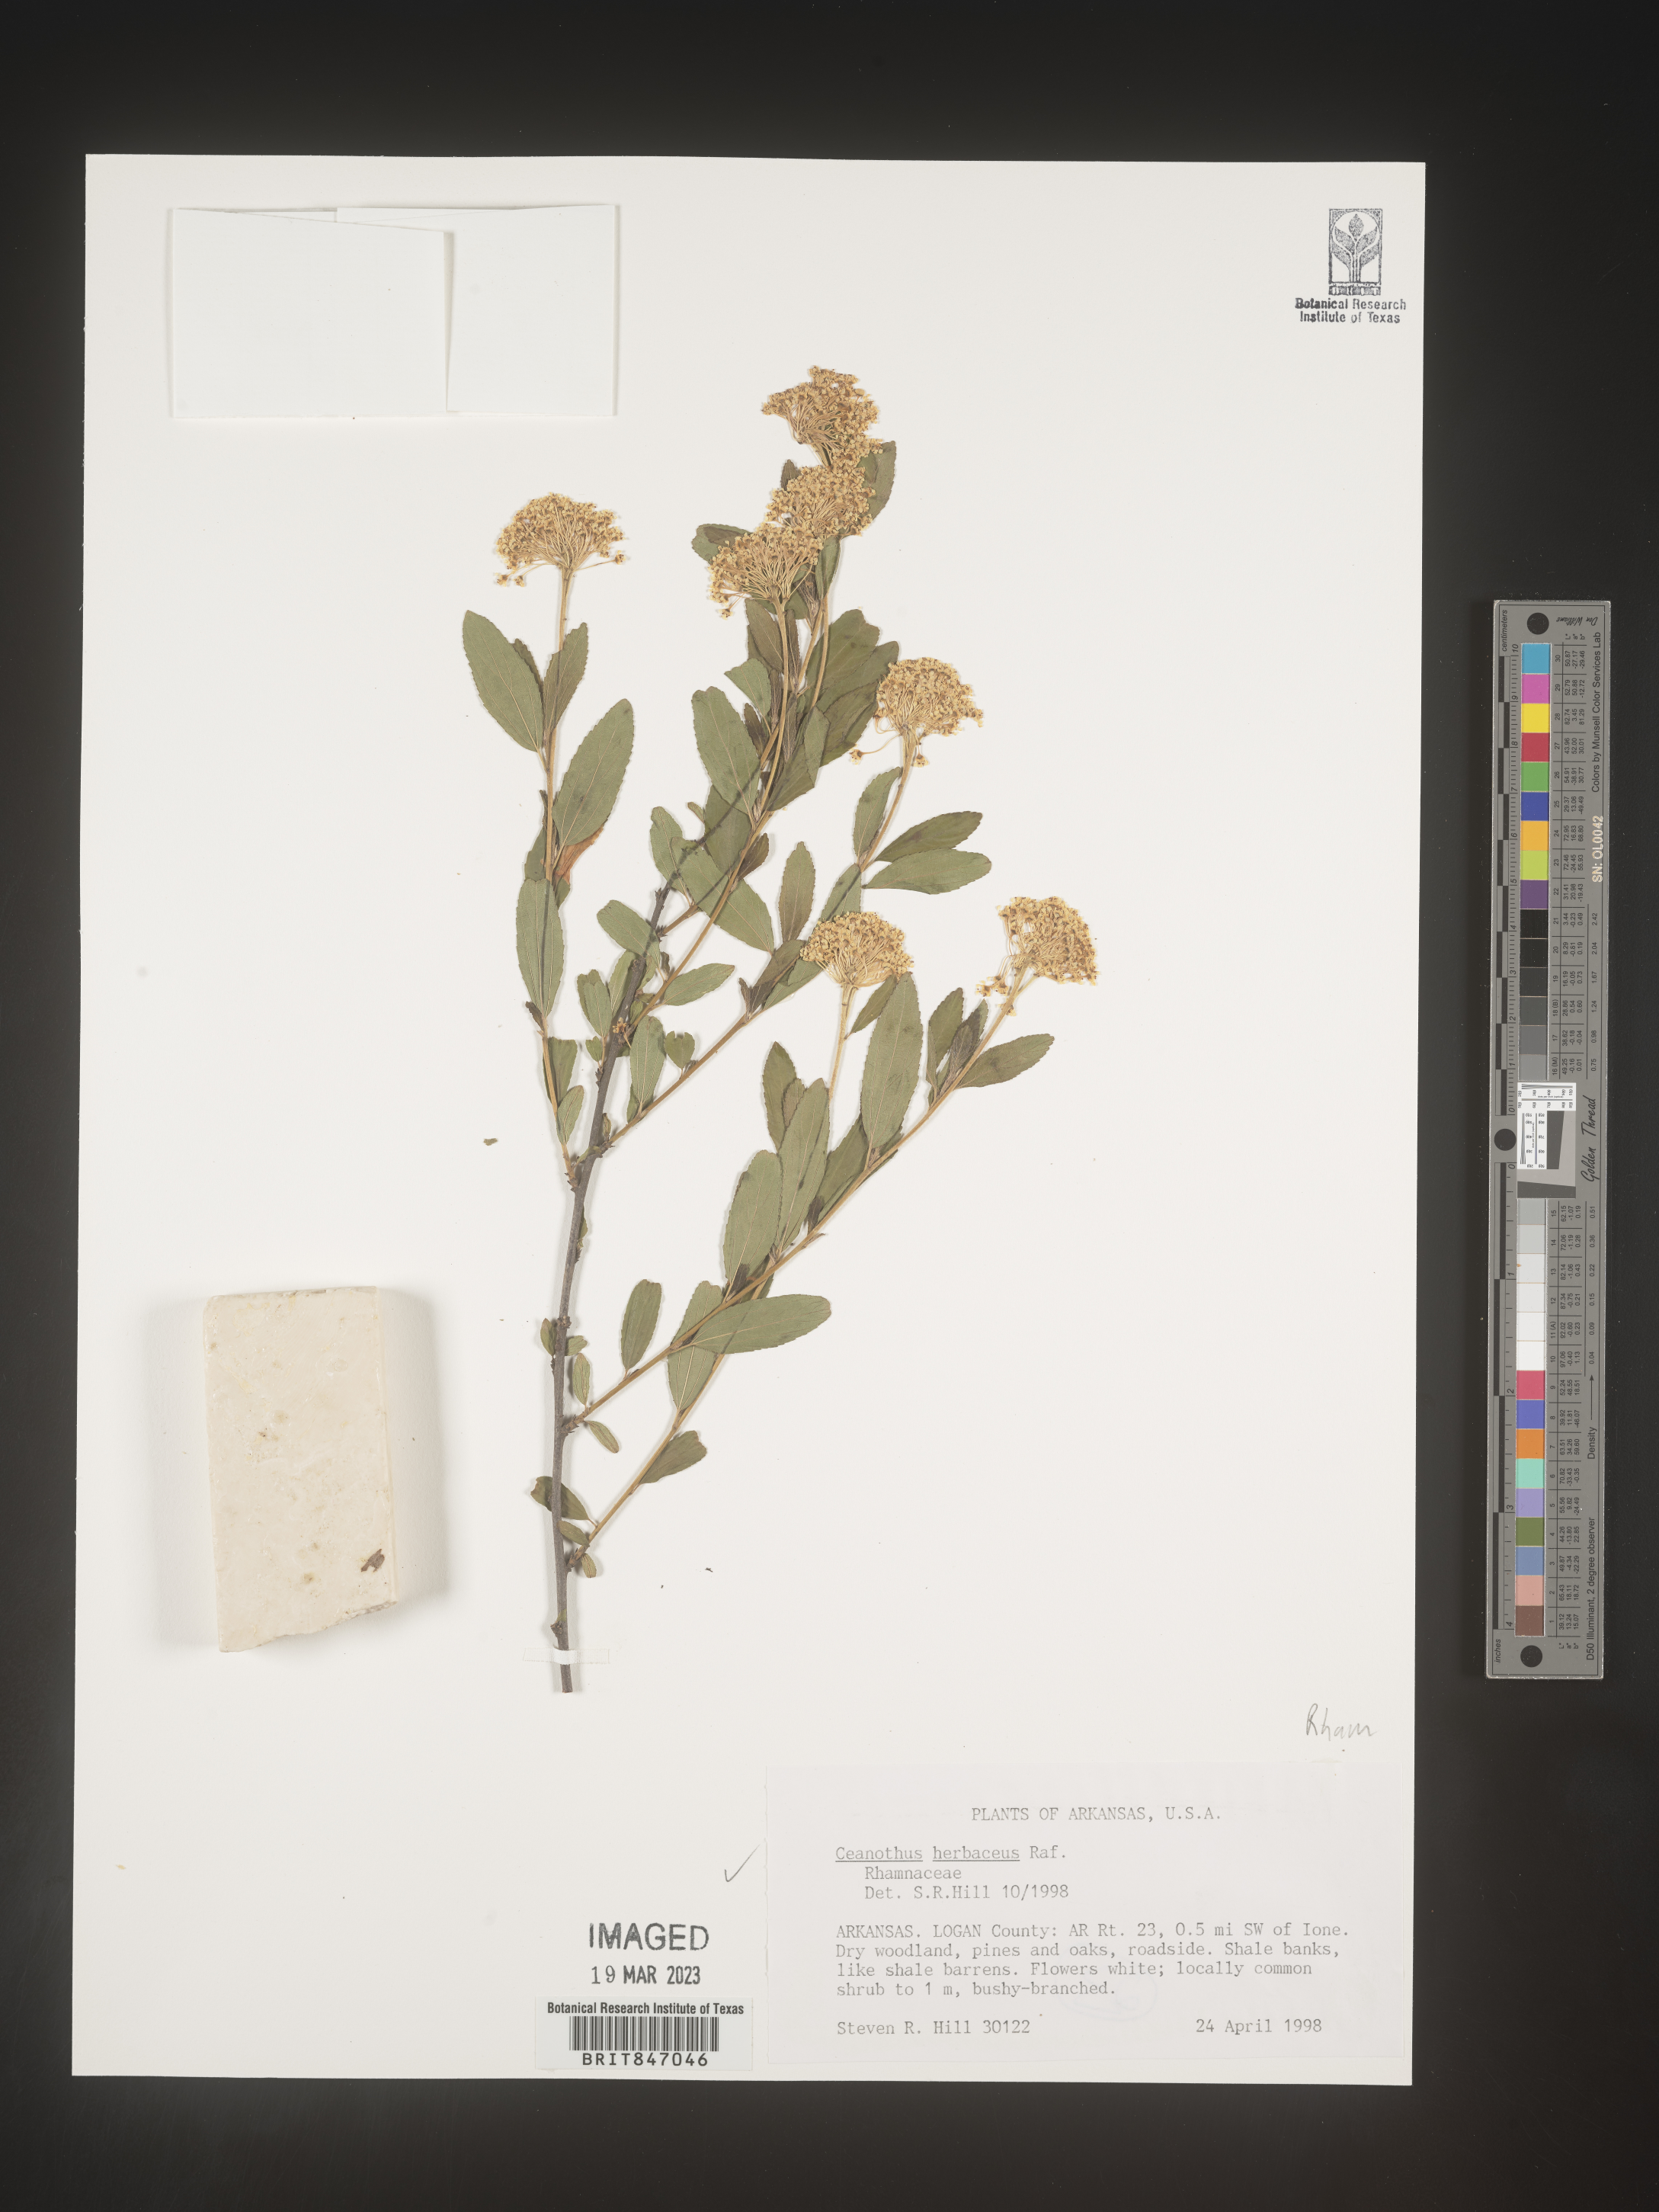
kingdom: Plantae
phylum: Tracheophyta
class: Magnoliopsida
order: Rosales
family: Rhamnaceae
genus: Ceanothus
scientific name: Ceanothus herbaceus
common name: Inland ceanothus
